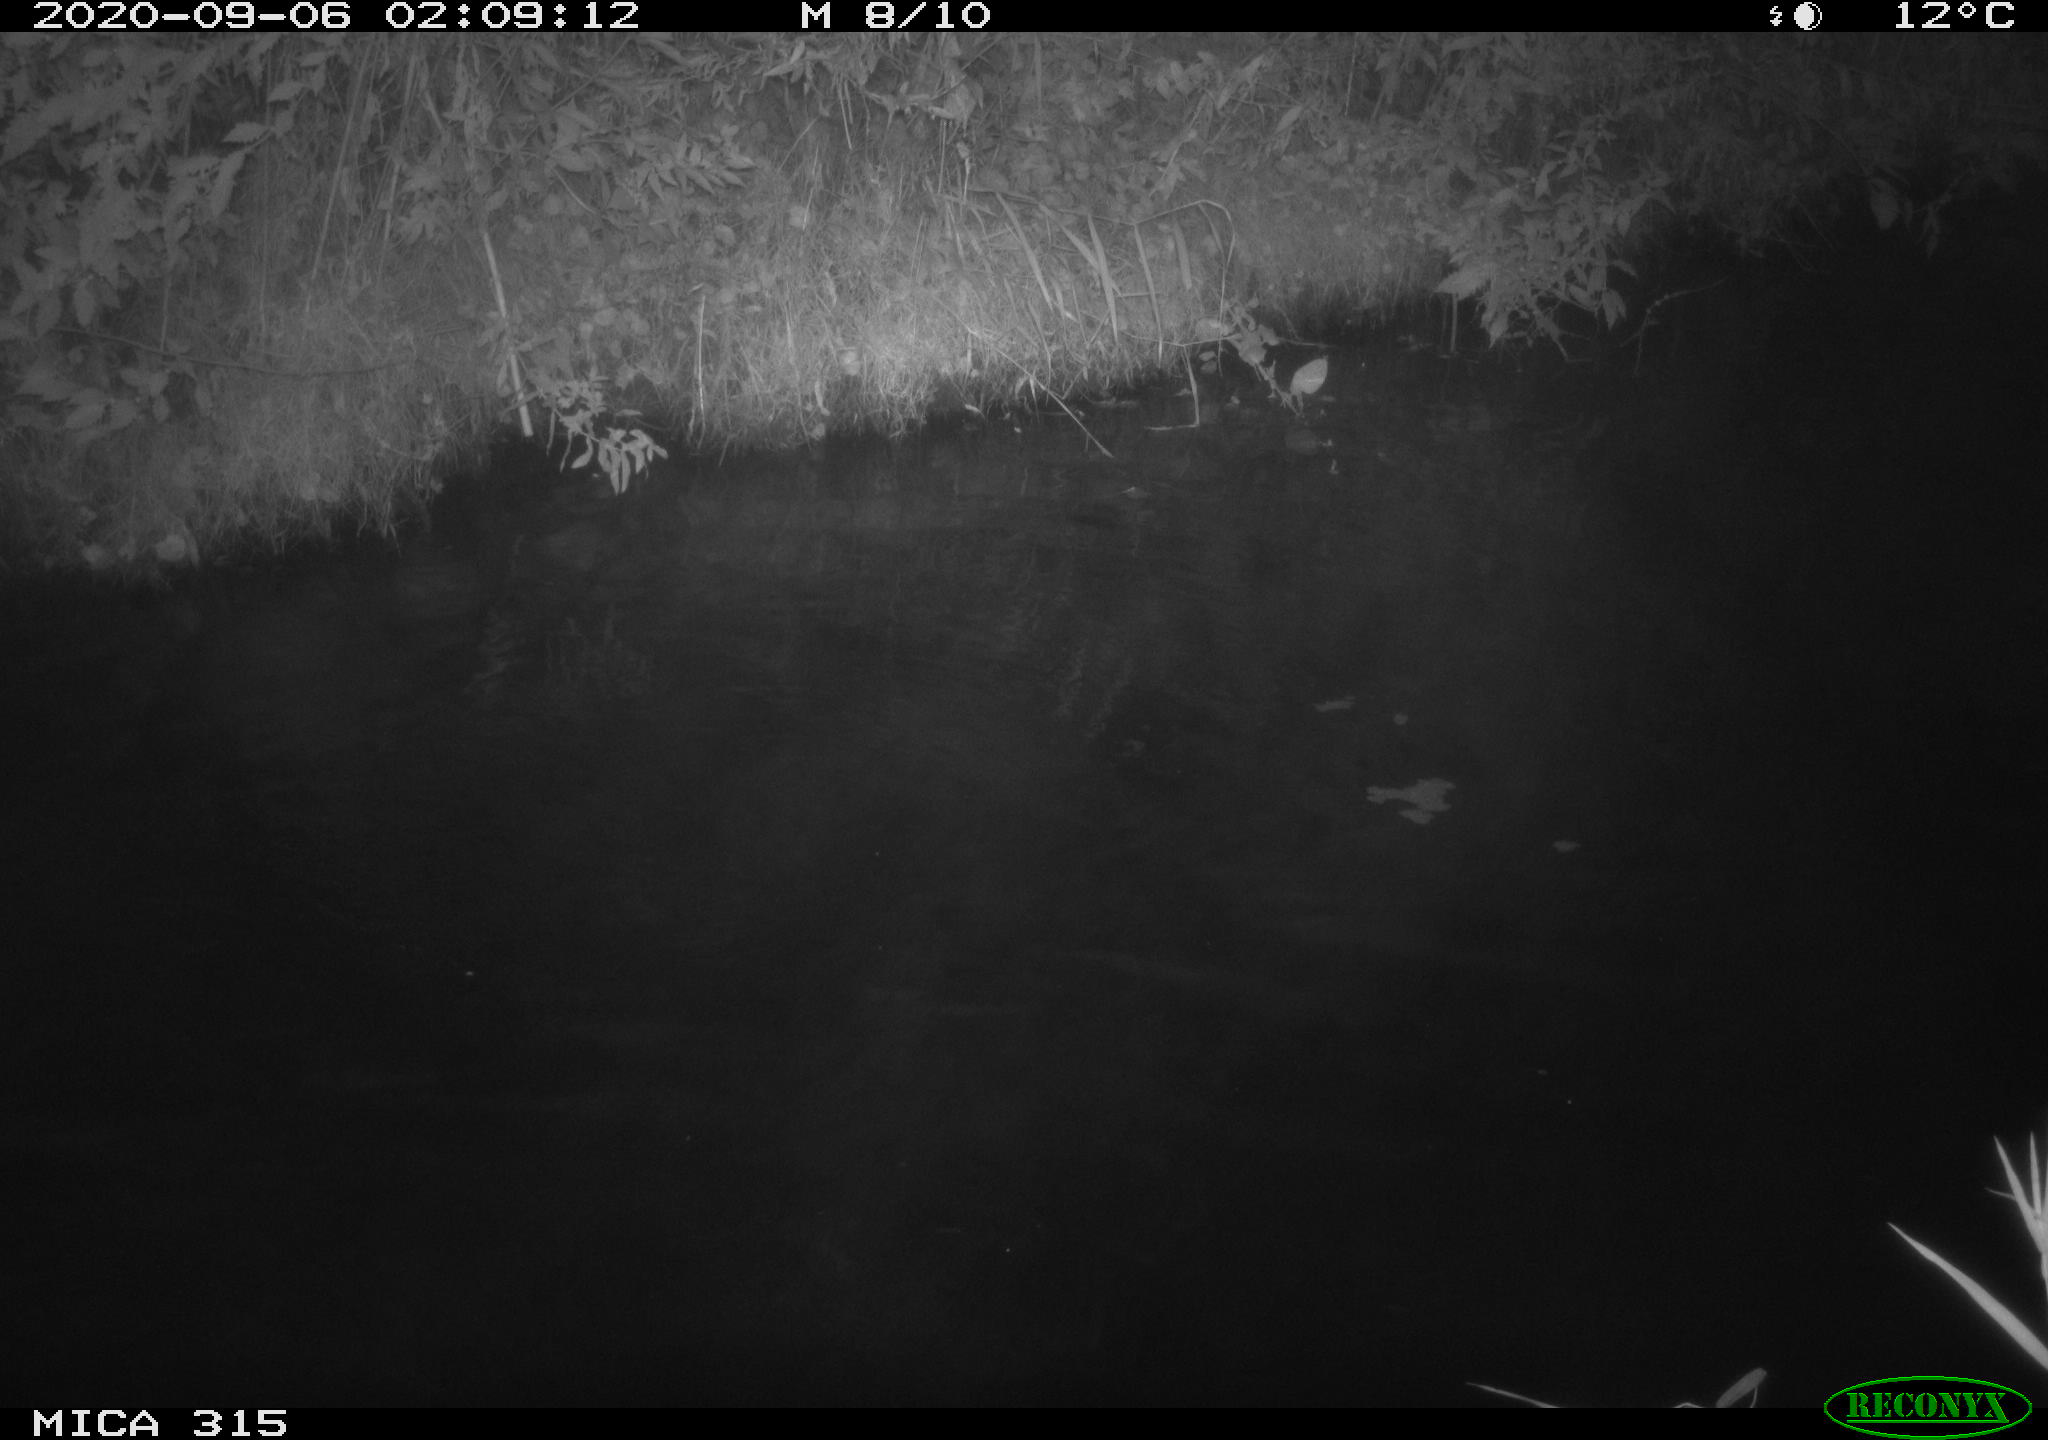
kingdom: Animalia
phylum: Chordata
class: Aves
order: Anseriformes
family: Anatidae
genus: Anas
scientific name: Anas platyrhynchos
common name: Mallard
